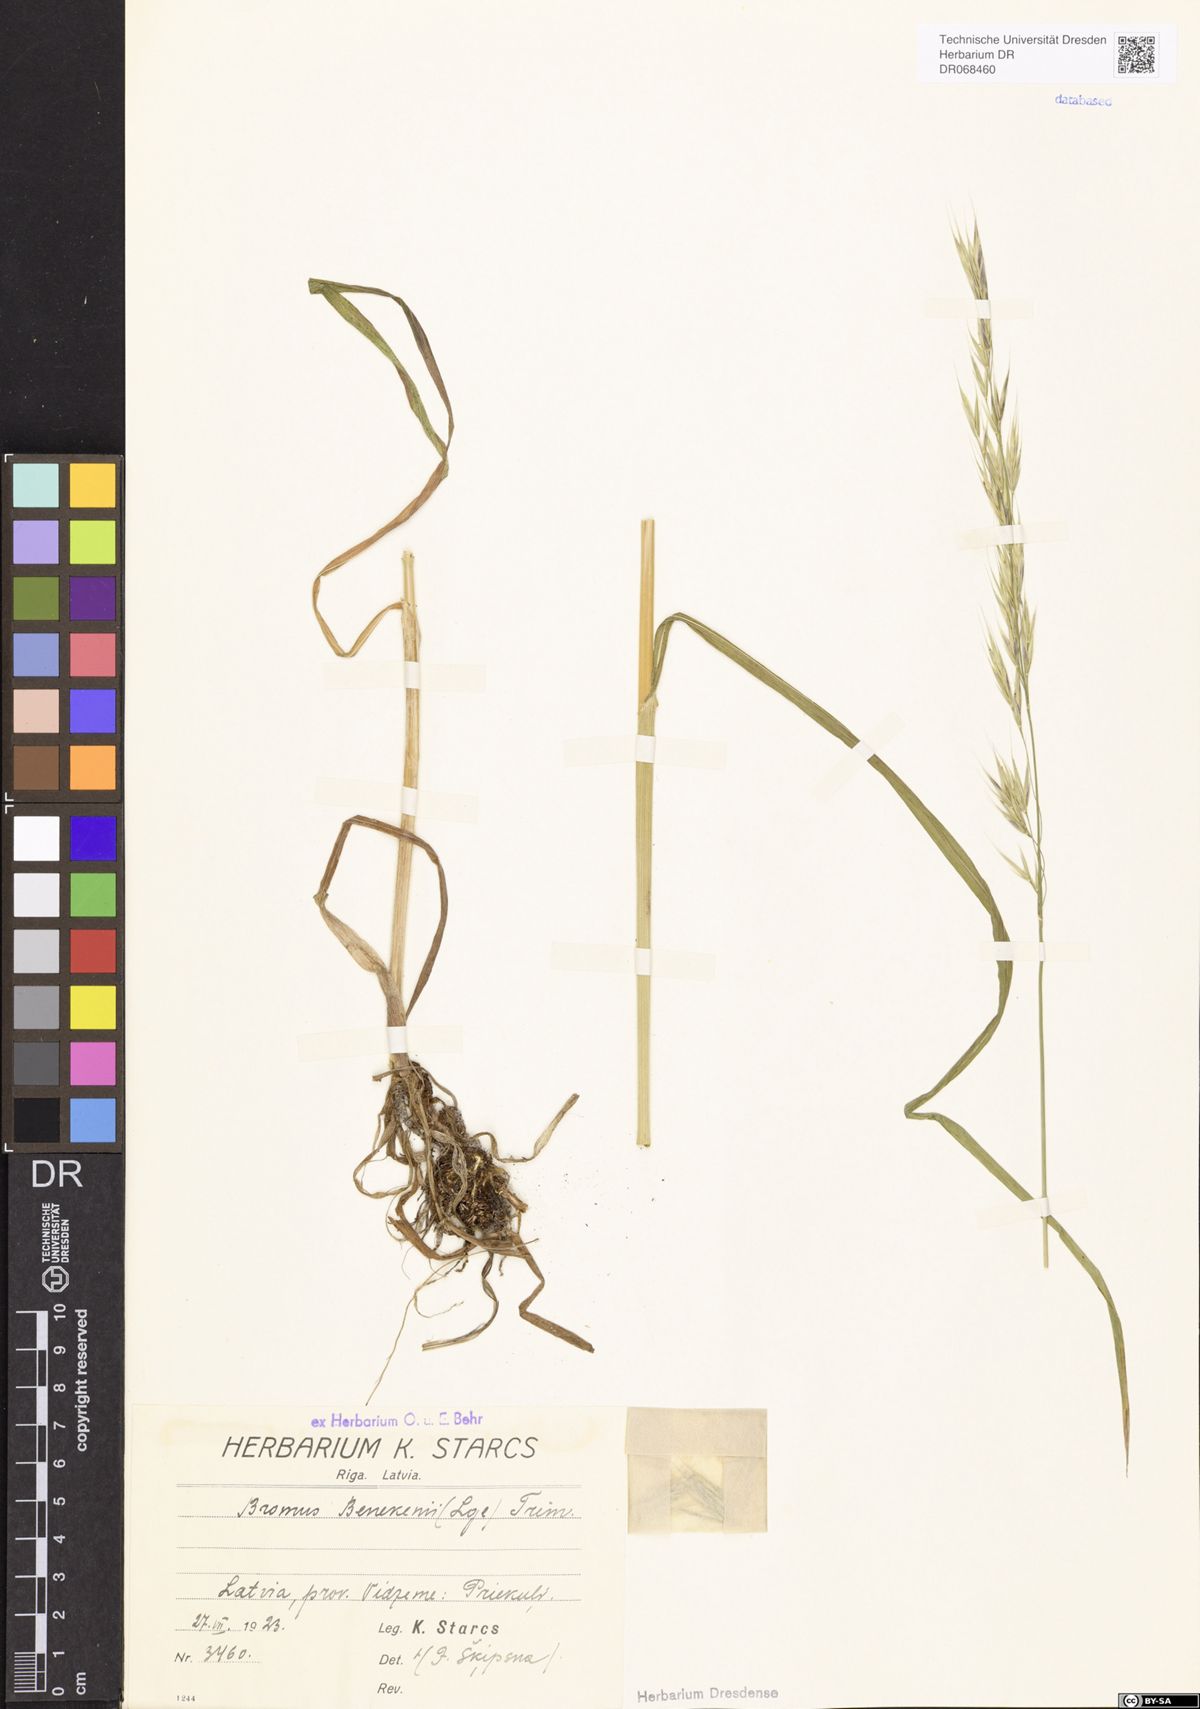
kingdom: Plantae
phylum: Tracheophyta
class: Liliopsida
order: Poales
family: Poaceae
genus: Bromus
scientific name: Bromus benekenii
